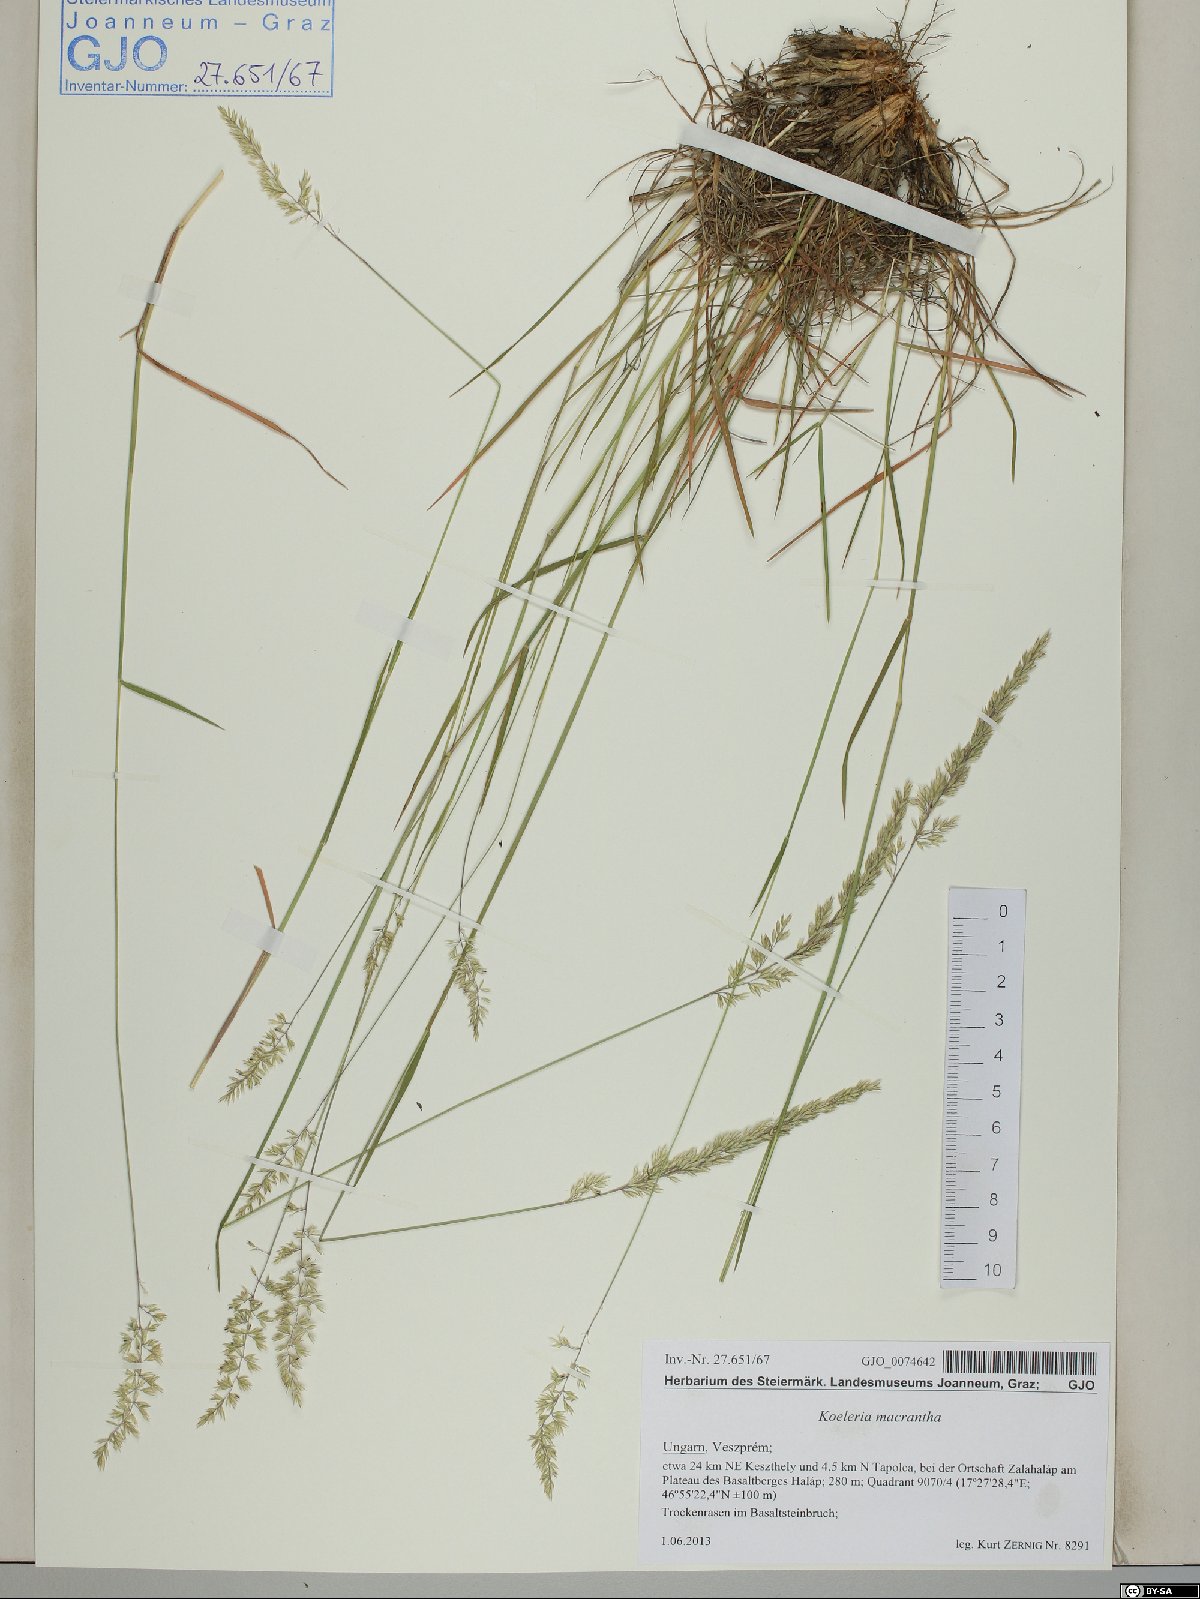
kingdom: Plantae
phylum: Tracheophyta
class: Liliopsida
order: Poales
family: Poaceae
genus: Koeleria
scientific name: Koeleria macrantha
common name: Crested hair-grass
